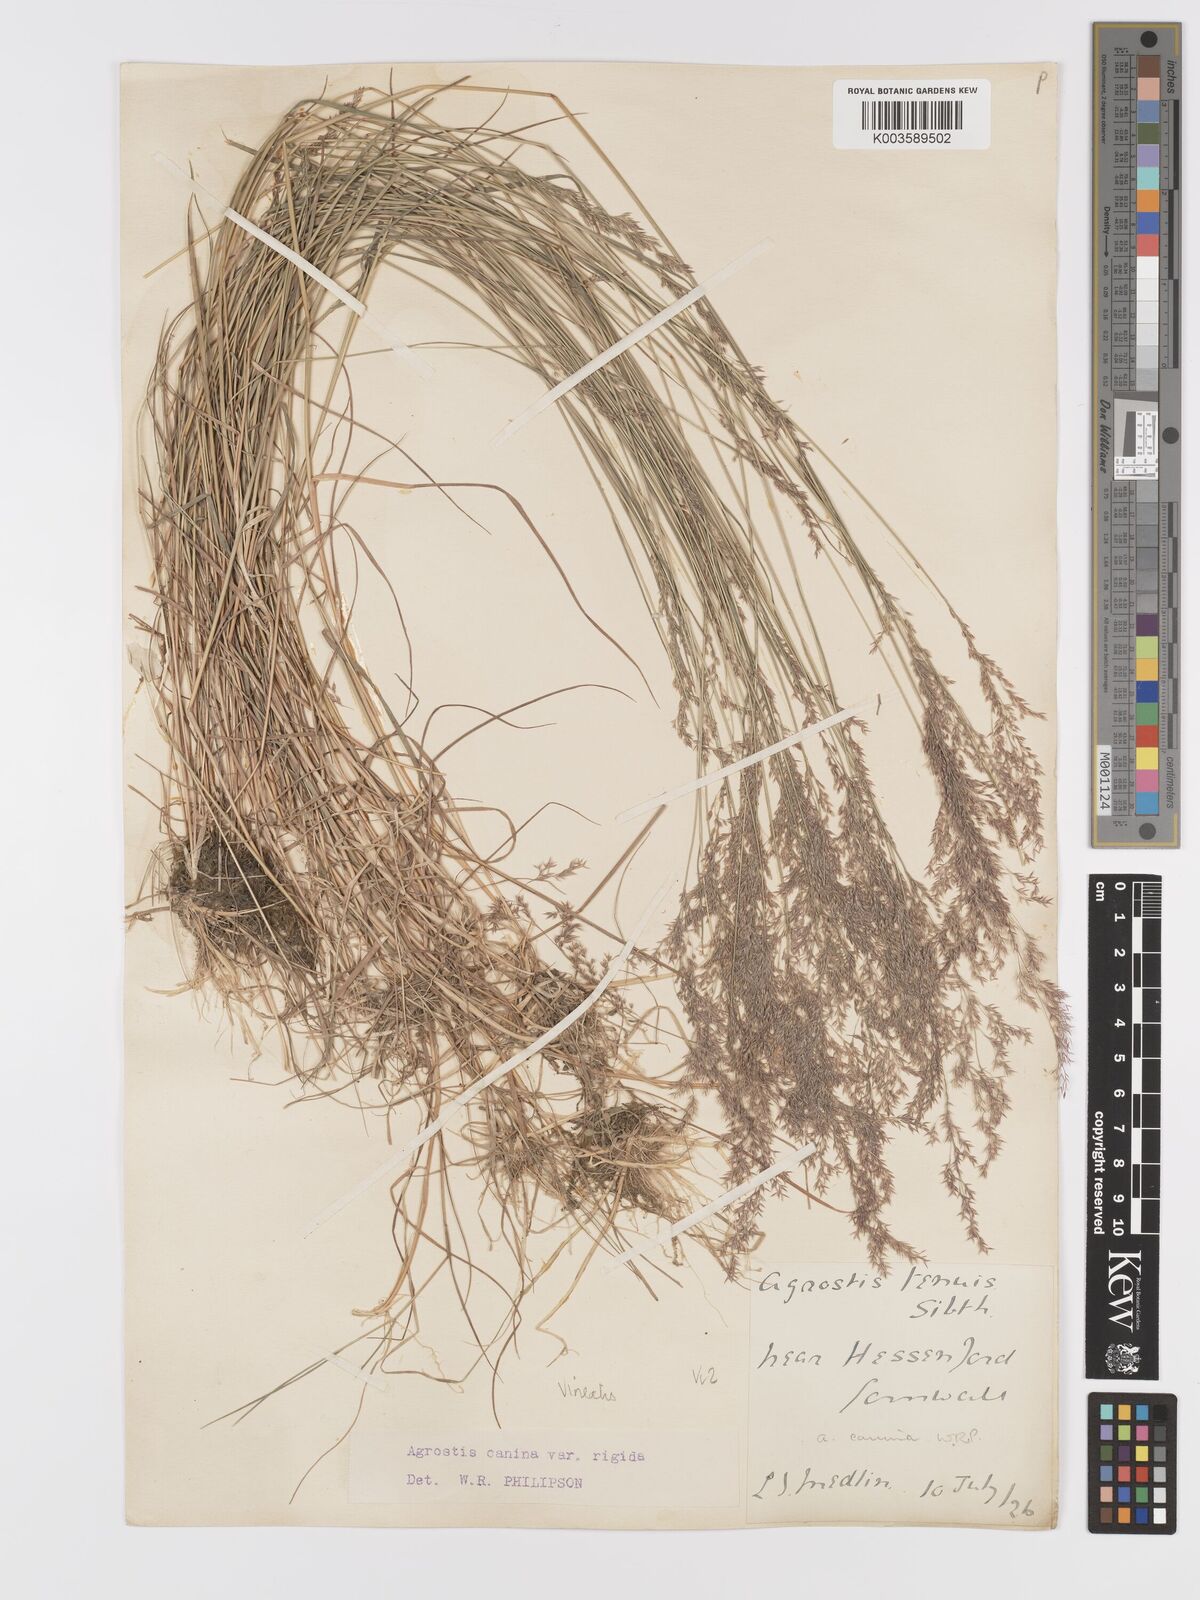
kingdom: Plantae
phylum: Tracheophyta
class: Liliopsida
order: Poales
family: Poaceae
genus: Agrostis
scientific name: Agrostis
